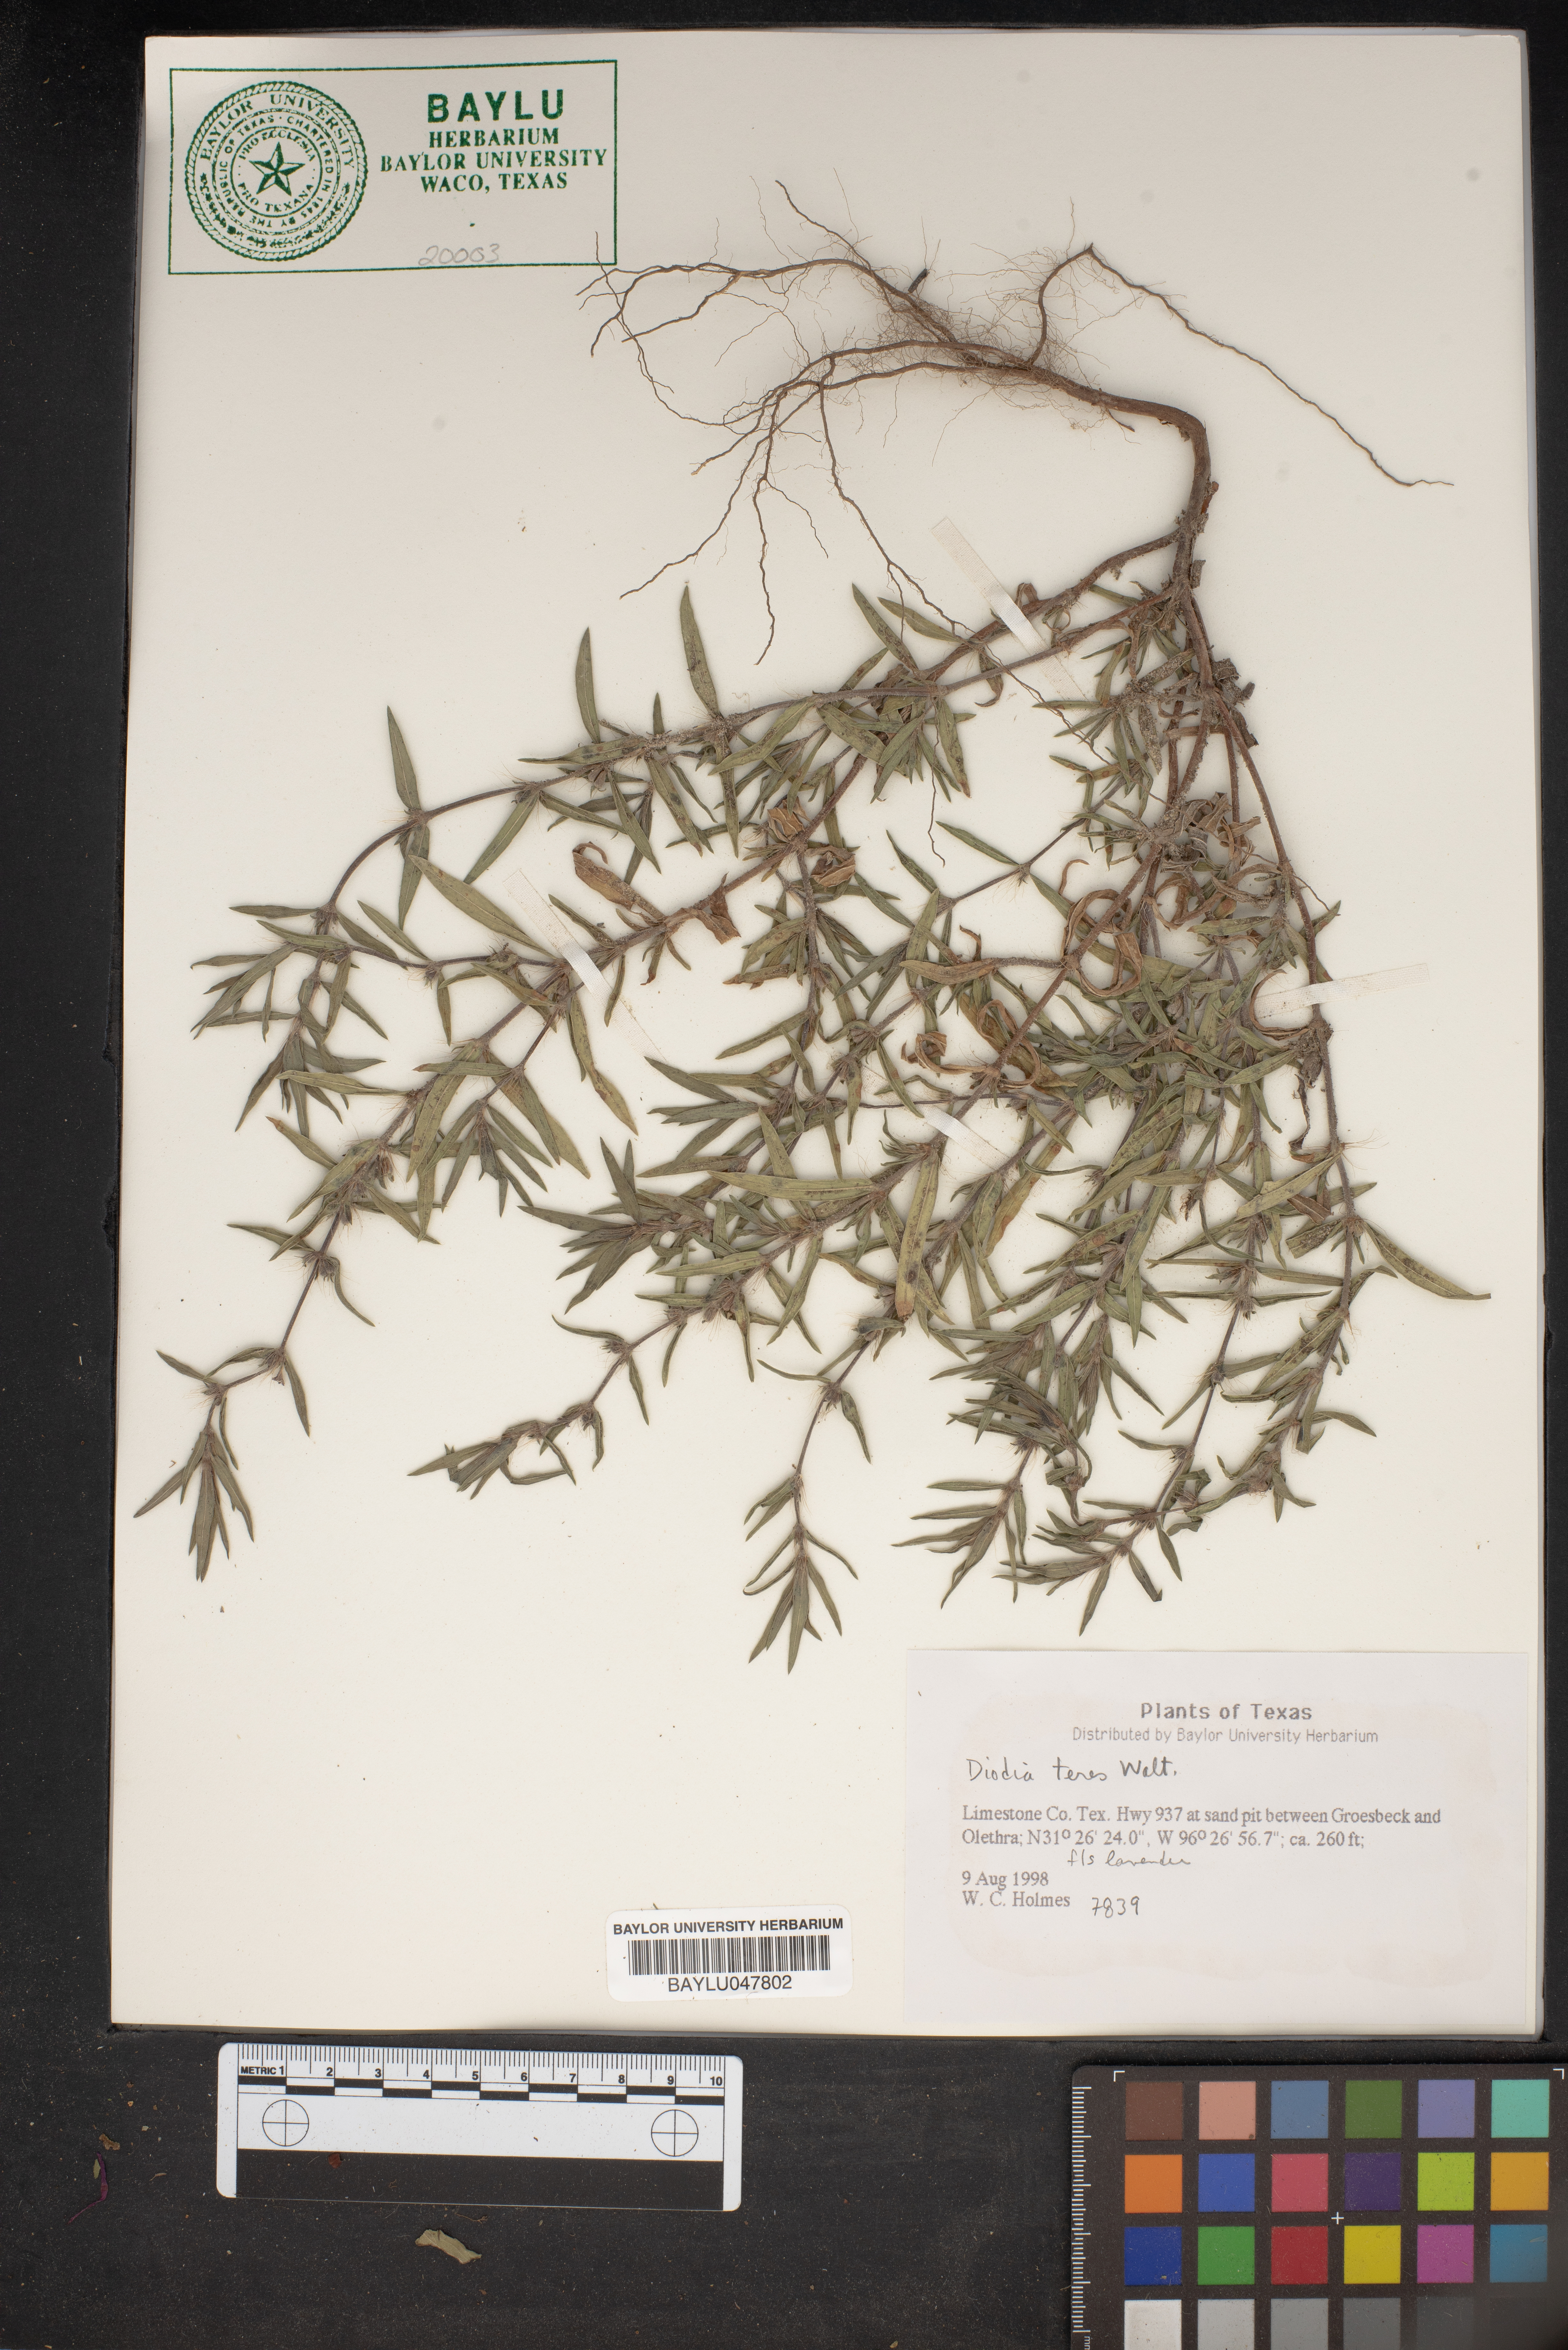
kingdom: Plantae
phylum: Tracheophyta
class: Magnoliopsida
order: Gentianales
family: Rubiaceae
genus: Hexasepalum
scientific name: Hexasepalum teres
